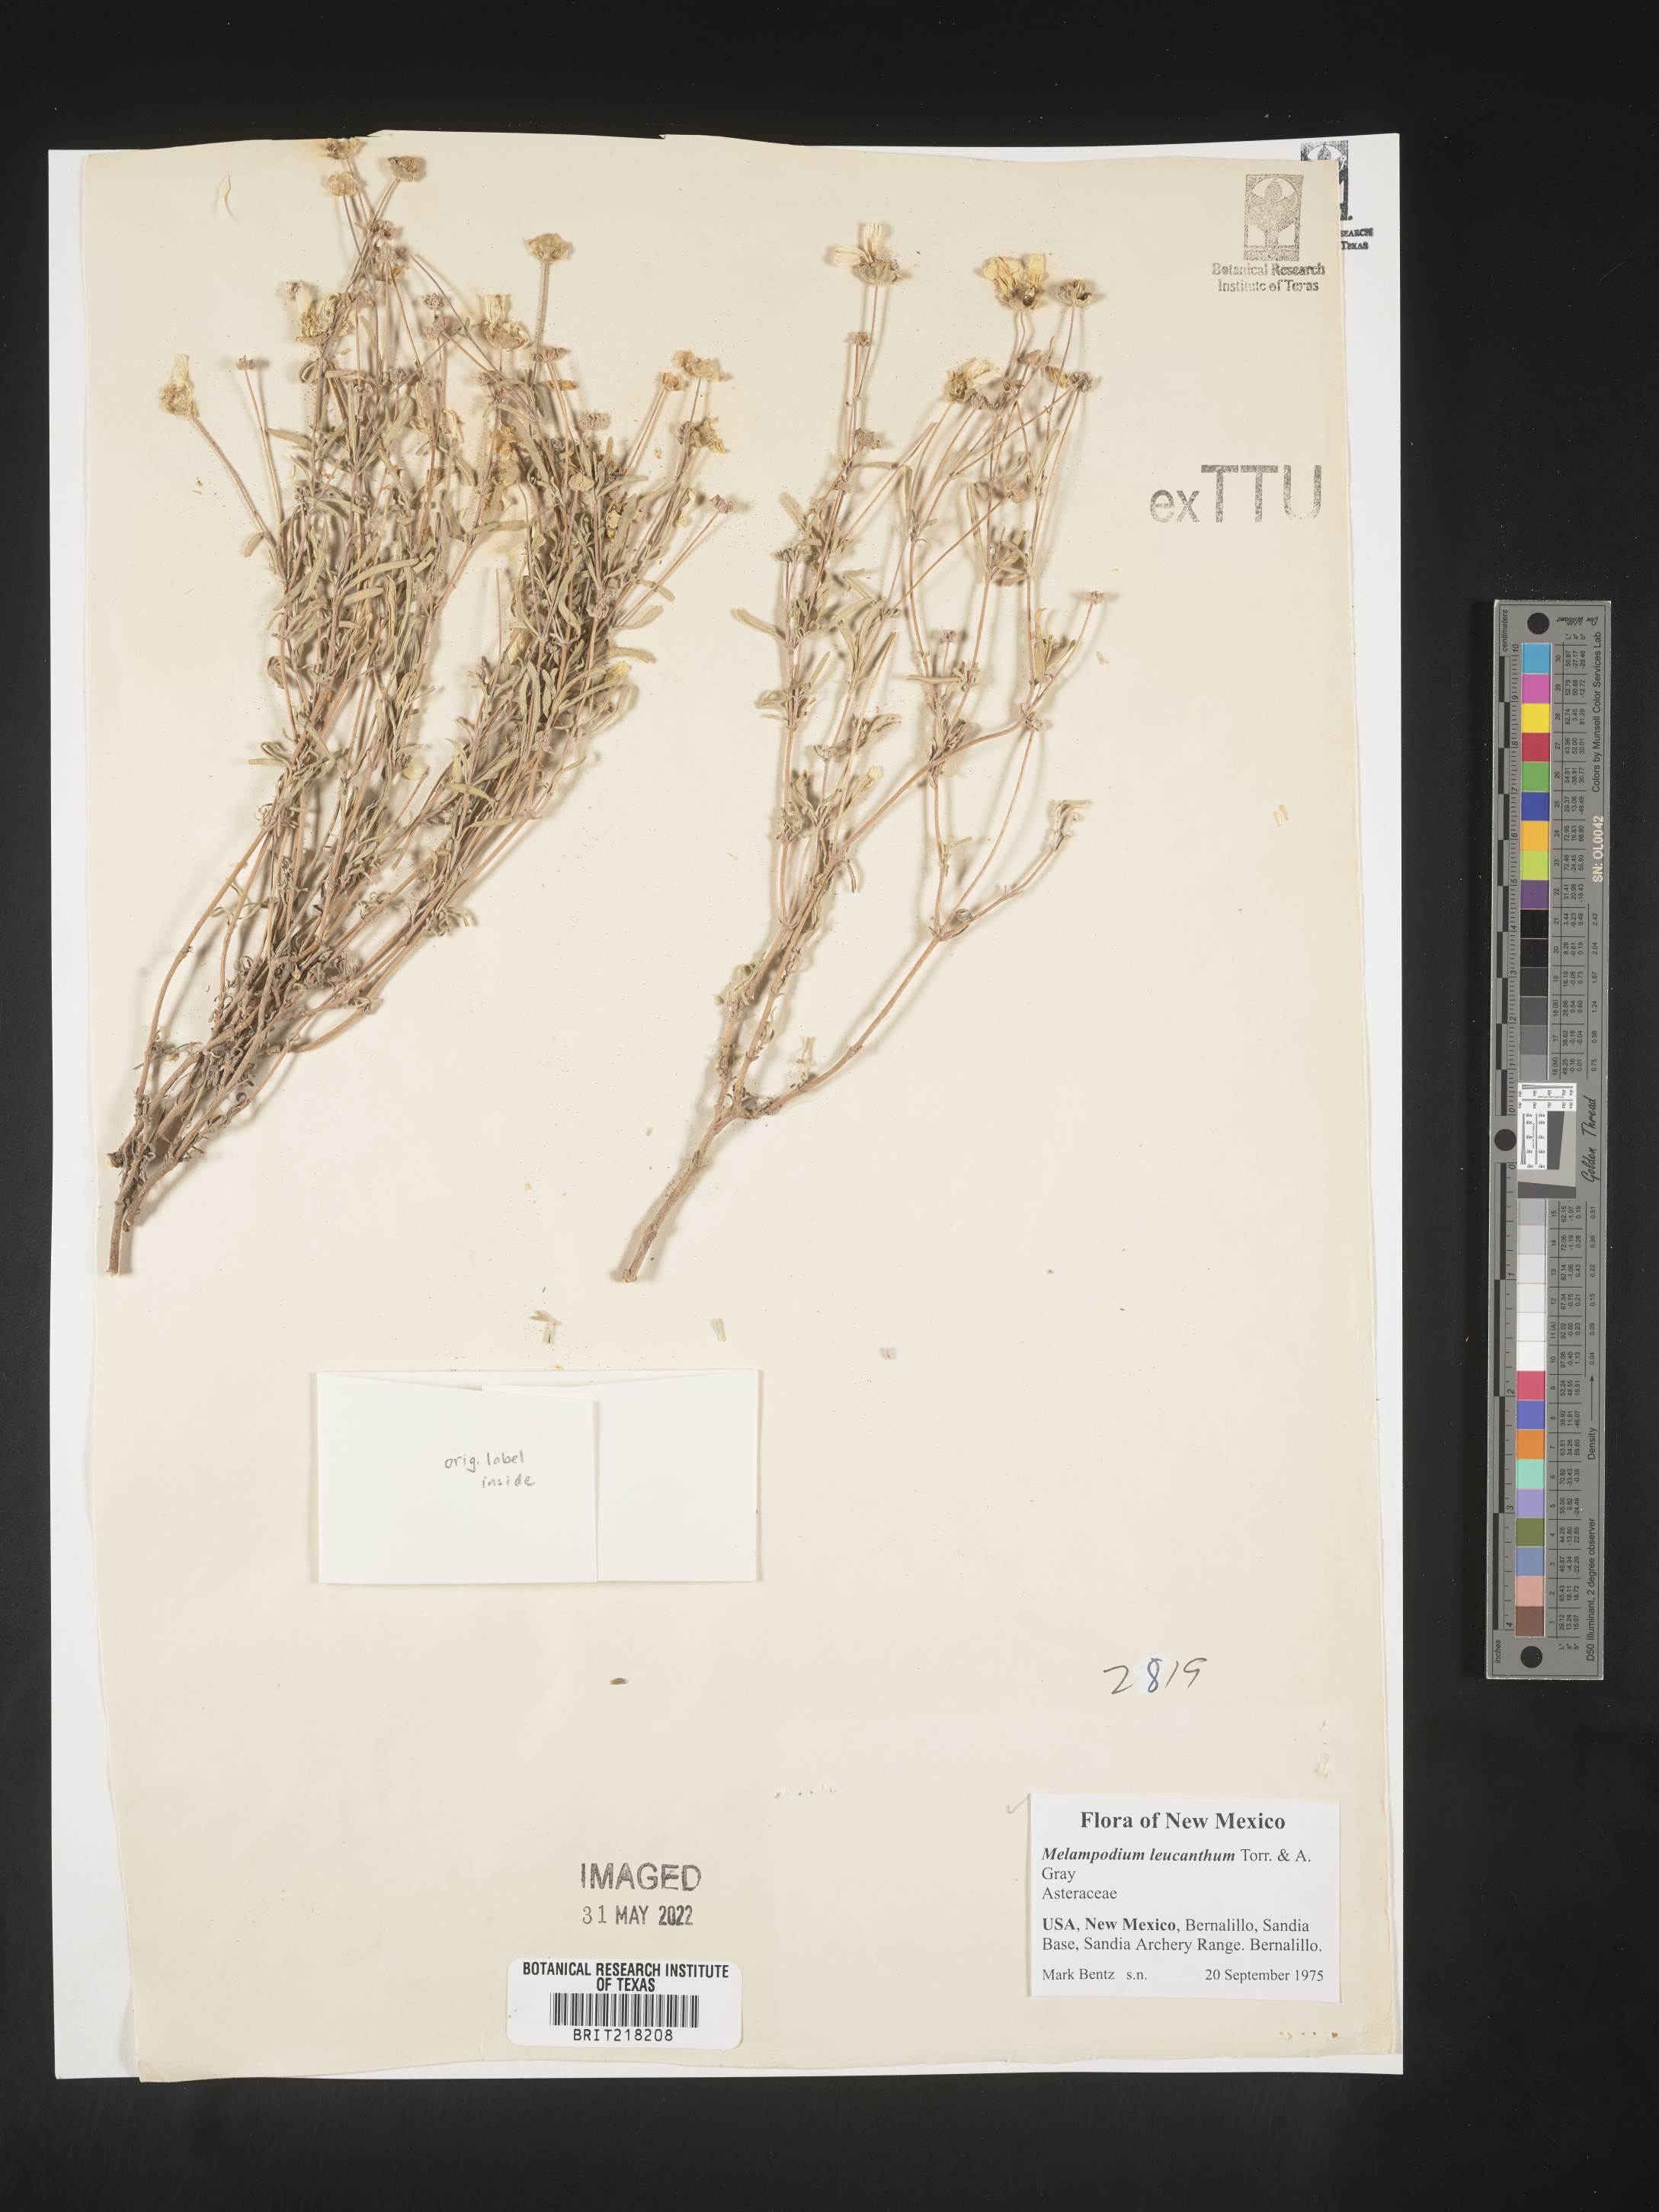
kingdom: Plantae
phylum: Tracheophyta
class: Magnoliopsida
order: Asterales
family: Asteraceae
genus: Melampodium
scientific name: Melampodium leucanthum
